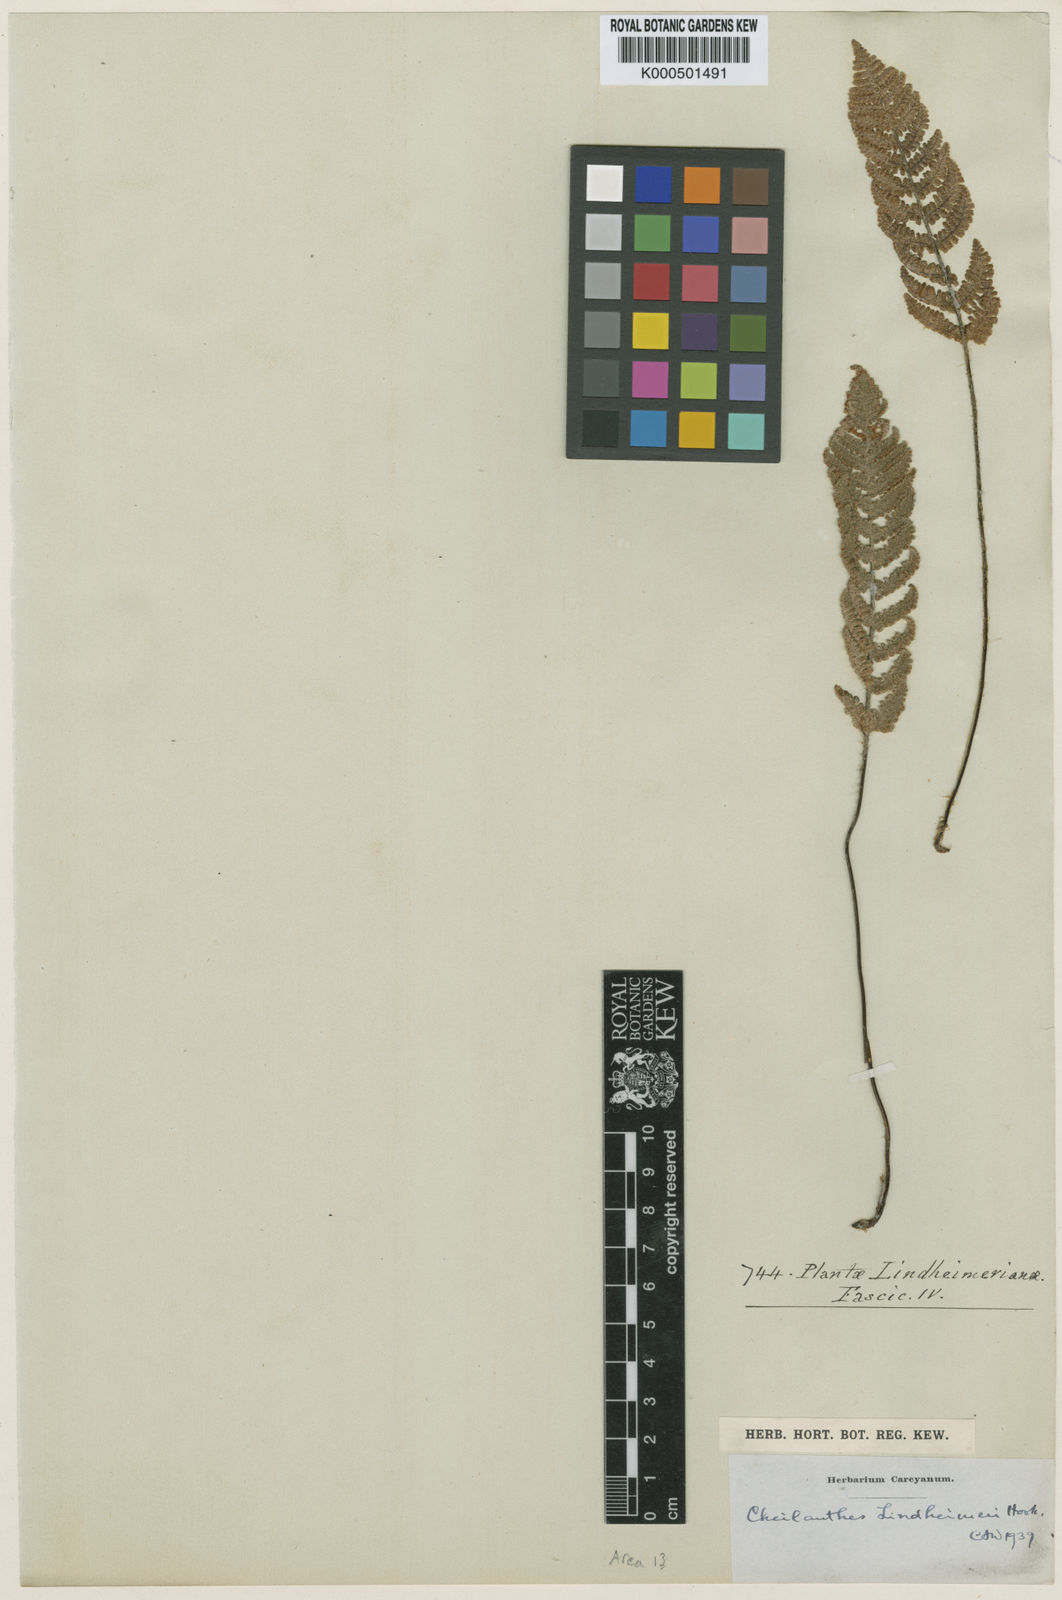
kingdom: Plantae
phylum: Tracheophyta
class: Polypodiopsida
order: Polypodiales
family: Pteridaceae
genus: Myriopteris
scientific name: Myriopteris lindheimeri
